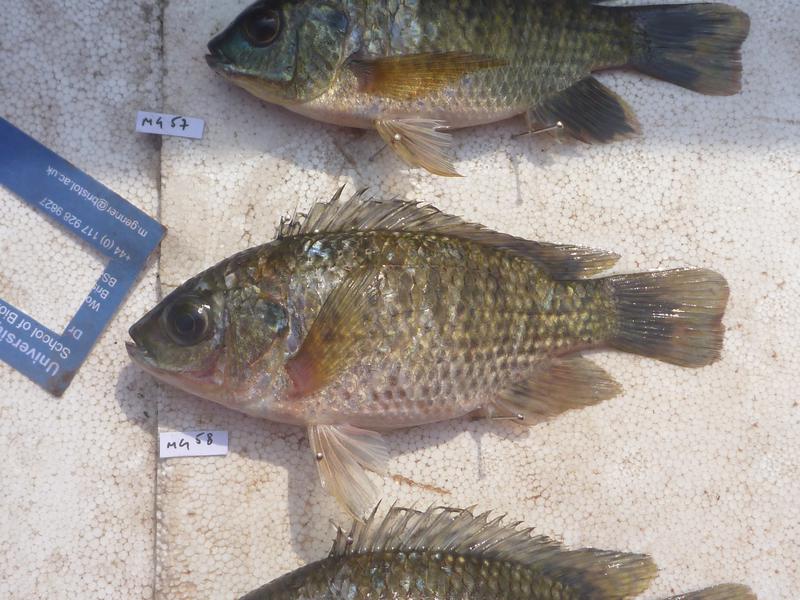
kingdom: Animalia
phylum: Chordata
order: Perciformes
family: Cichlidae
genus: Oreochromis
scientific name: Oreochromis leucostictus
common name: Blue spotted tilapia
